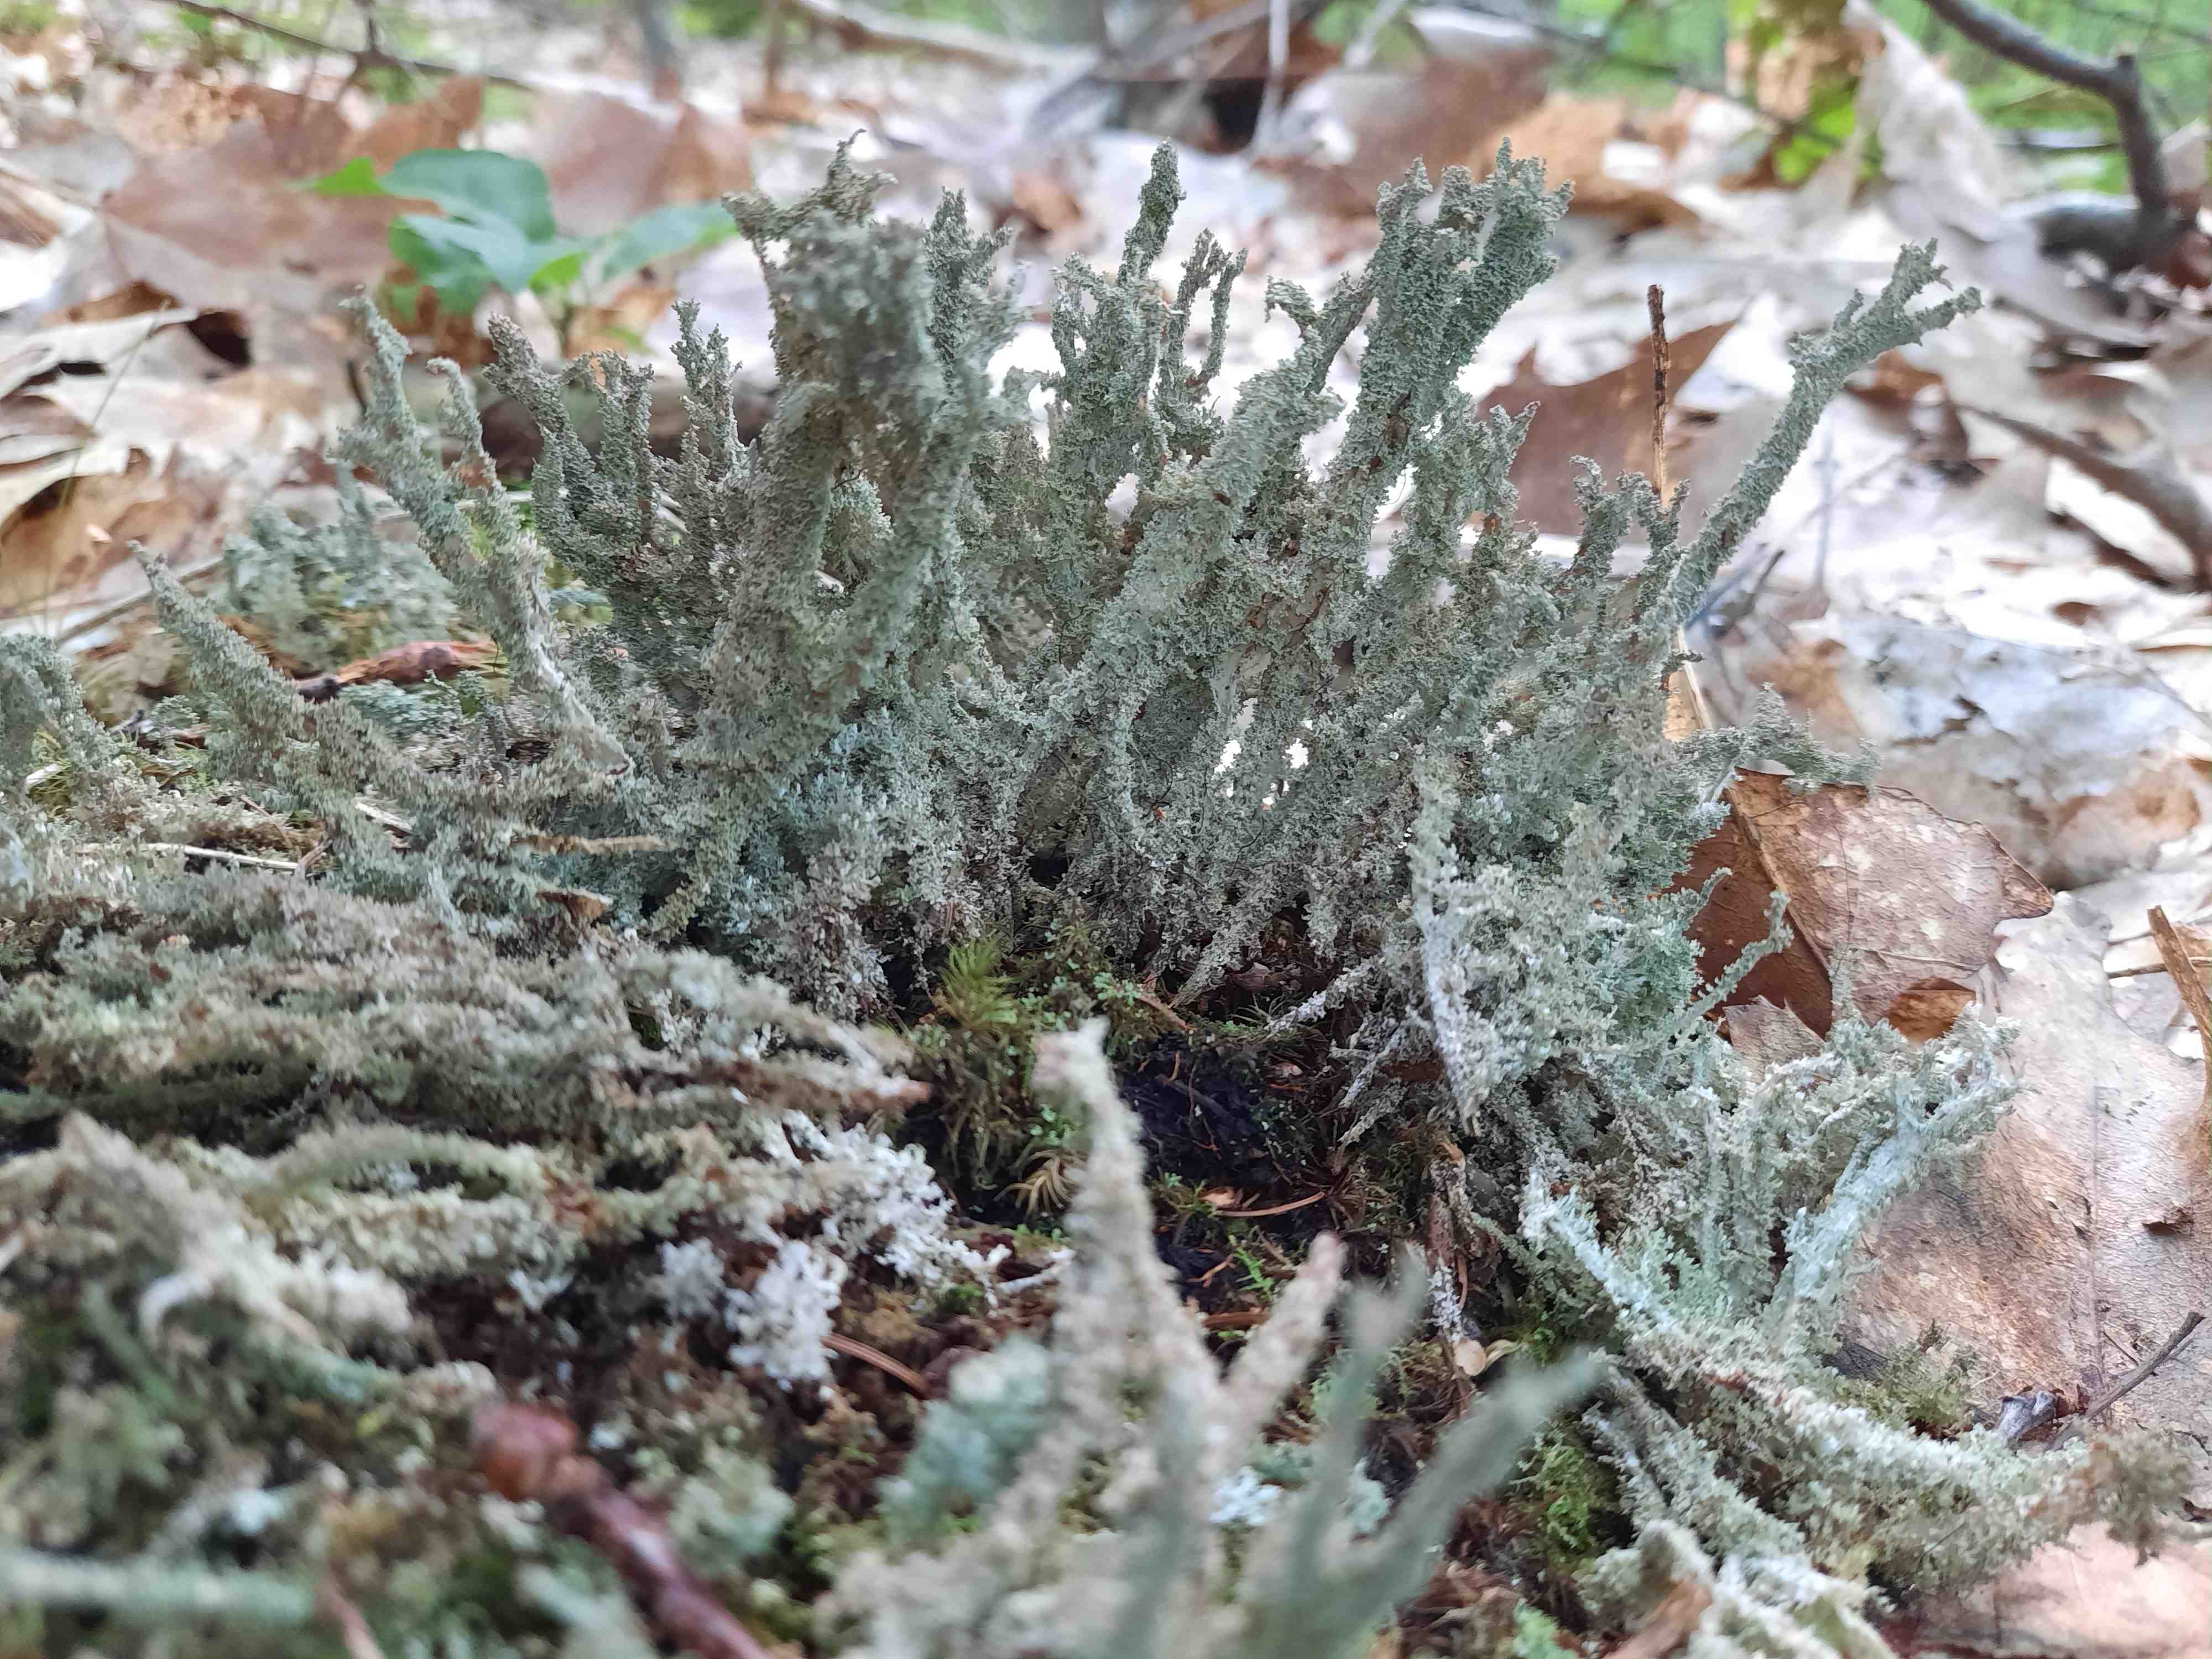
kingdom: Fungi
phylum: Ascomycota
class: Lecanoromycetes
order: Lecanorales
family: Cladoniaceae
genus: Cladonia
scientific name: Cladonia scabriuscula
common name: ru bægerlav
